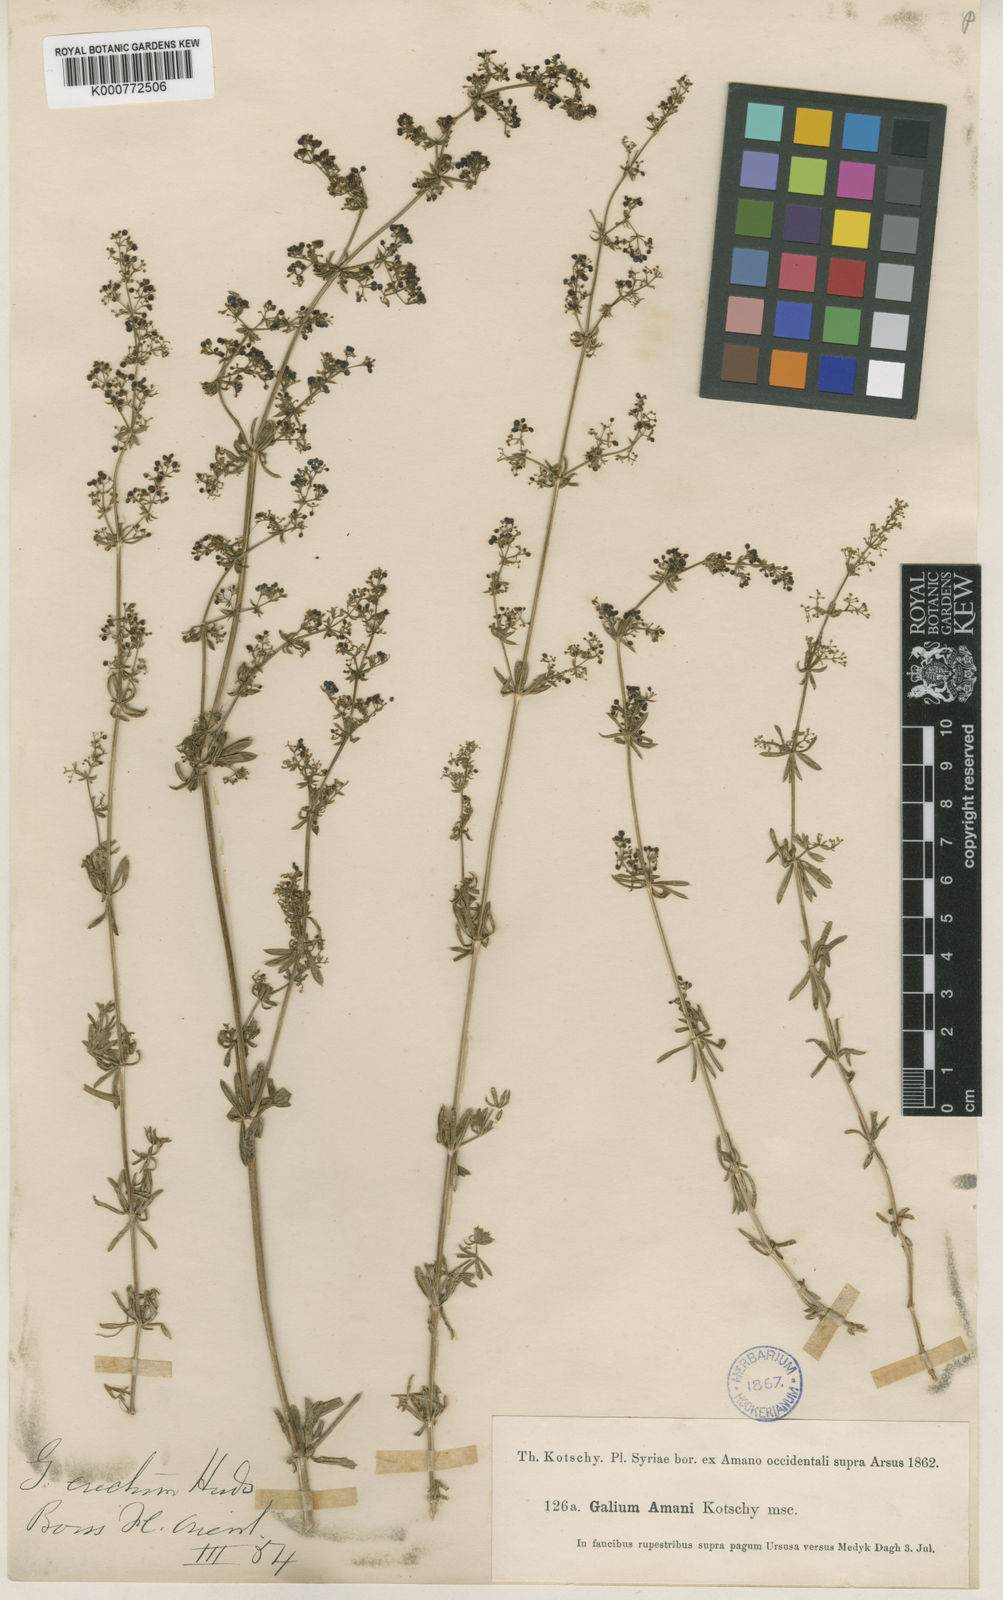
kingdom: Plantae
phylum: Tracheophyta
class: Magnoliopsida
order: Gentianales
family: Rubiaceae
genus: Galium
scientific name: Galium mollugo
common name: Hedge bedstraw
